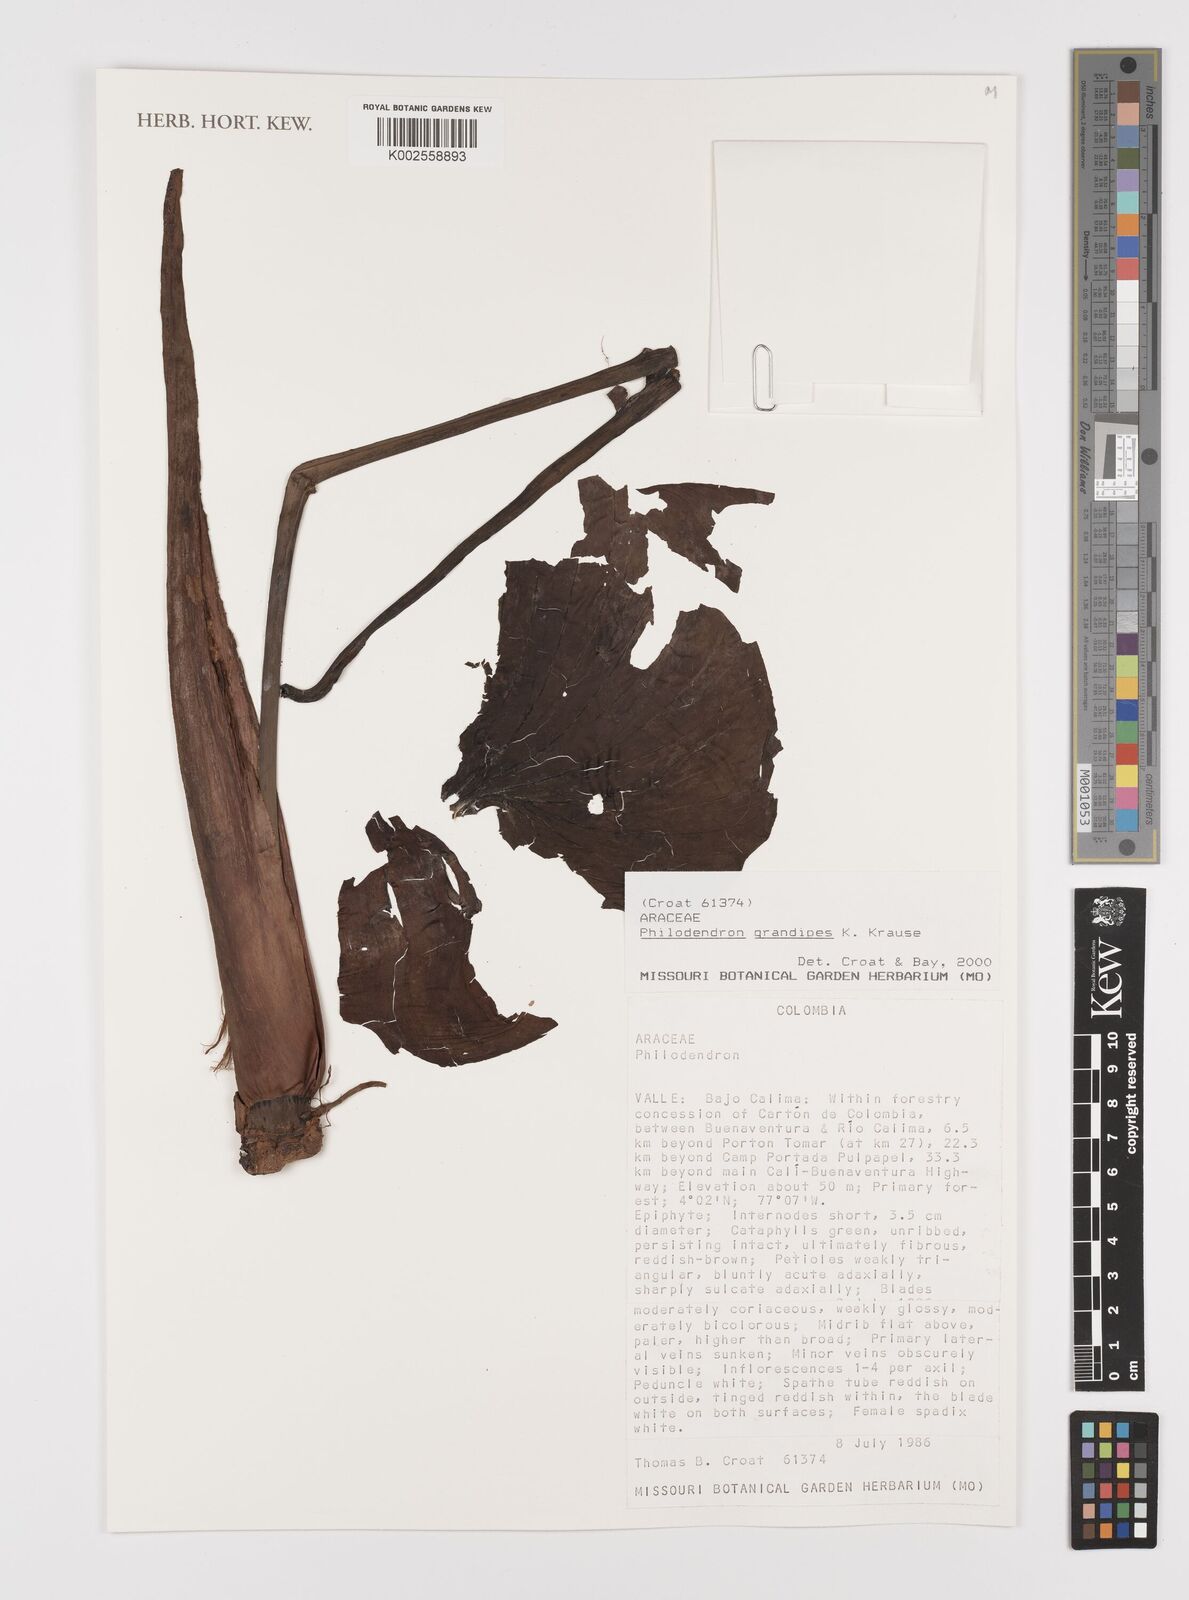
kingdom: Plantae
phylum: Tracheophyta
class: Liliopsida
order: Alismatales
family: Araceae
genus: Philodendron
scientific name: Philodendron grandipes
